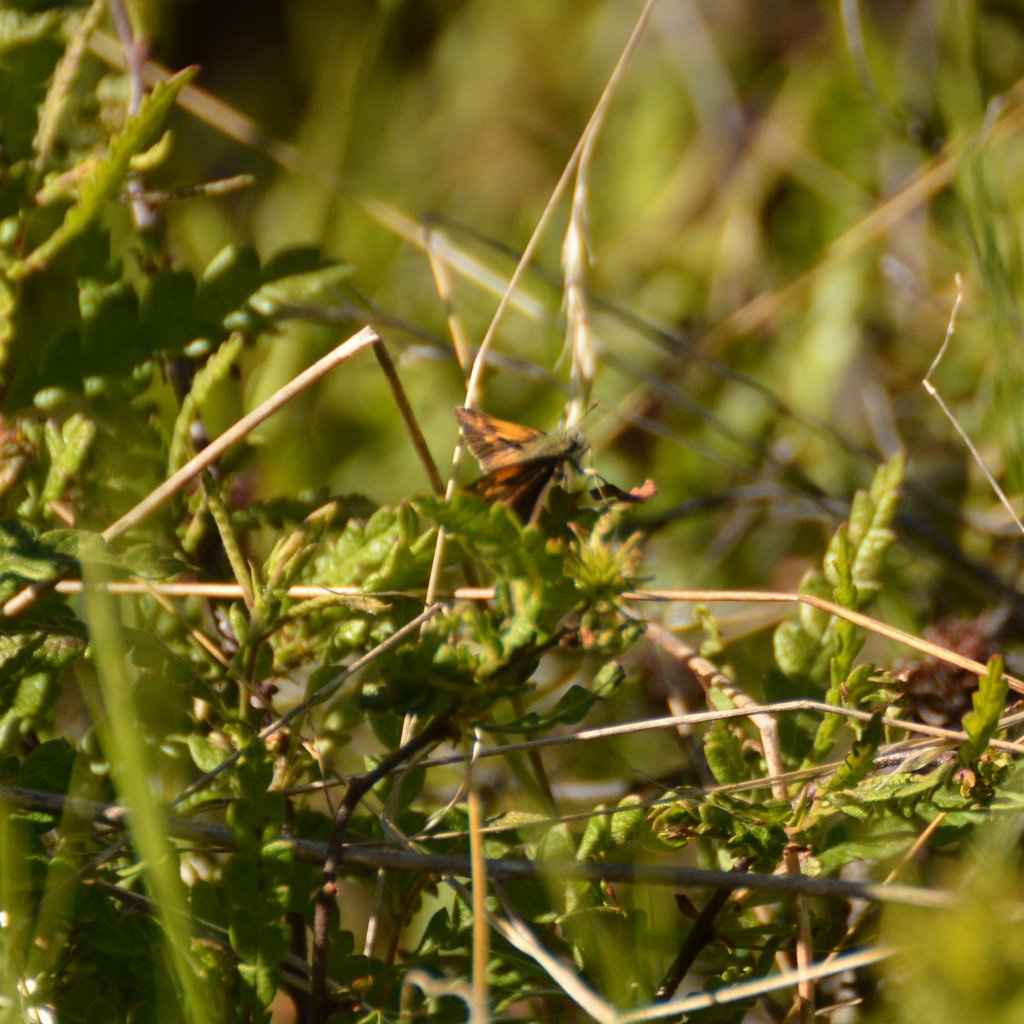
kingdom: Animalia
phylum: Arthropoda
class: Insecta
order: Lepidoptera
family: Hesperiidae
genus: Polites
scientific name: Polites themistocles
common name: Tawny-edged Skipper
